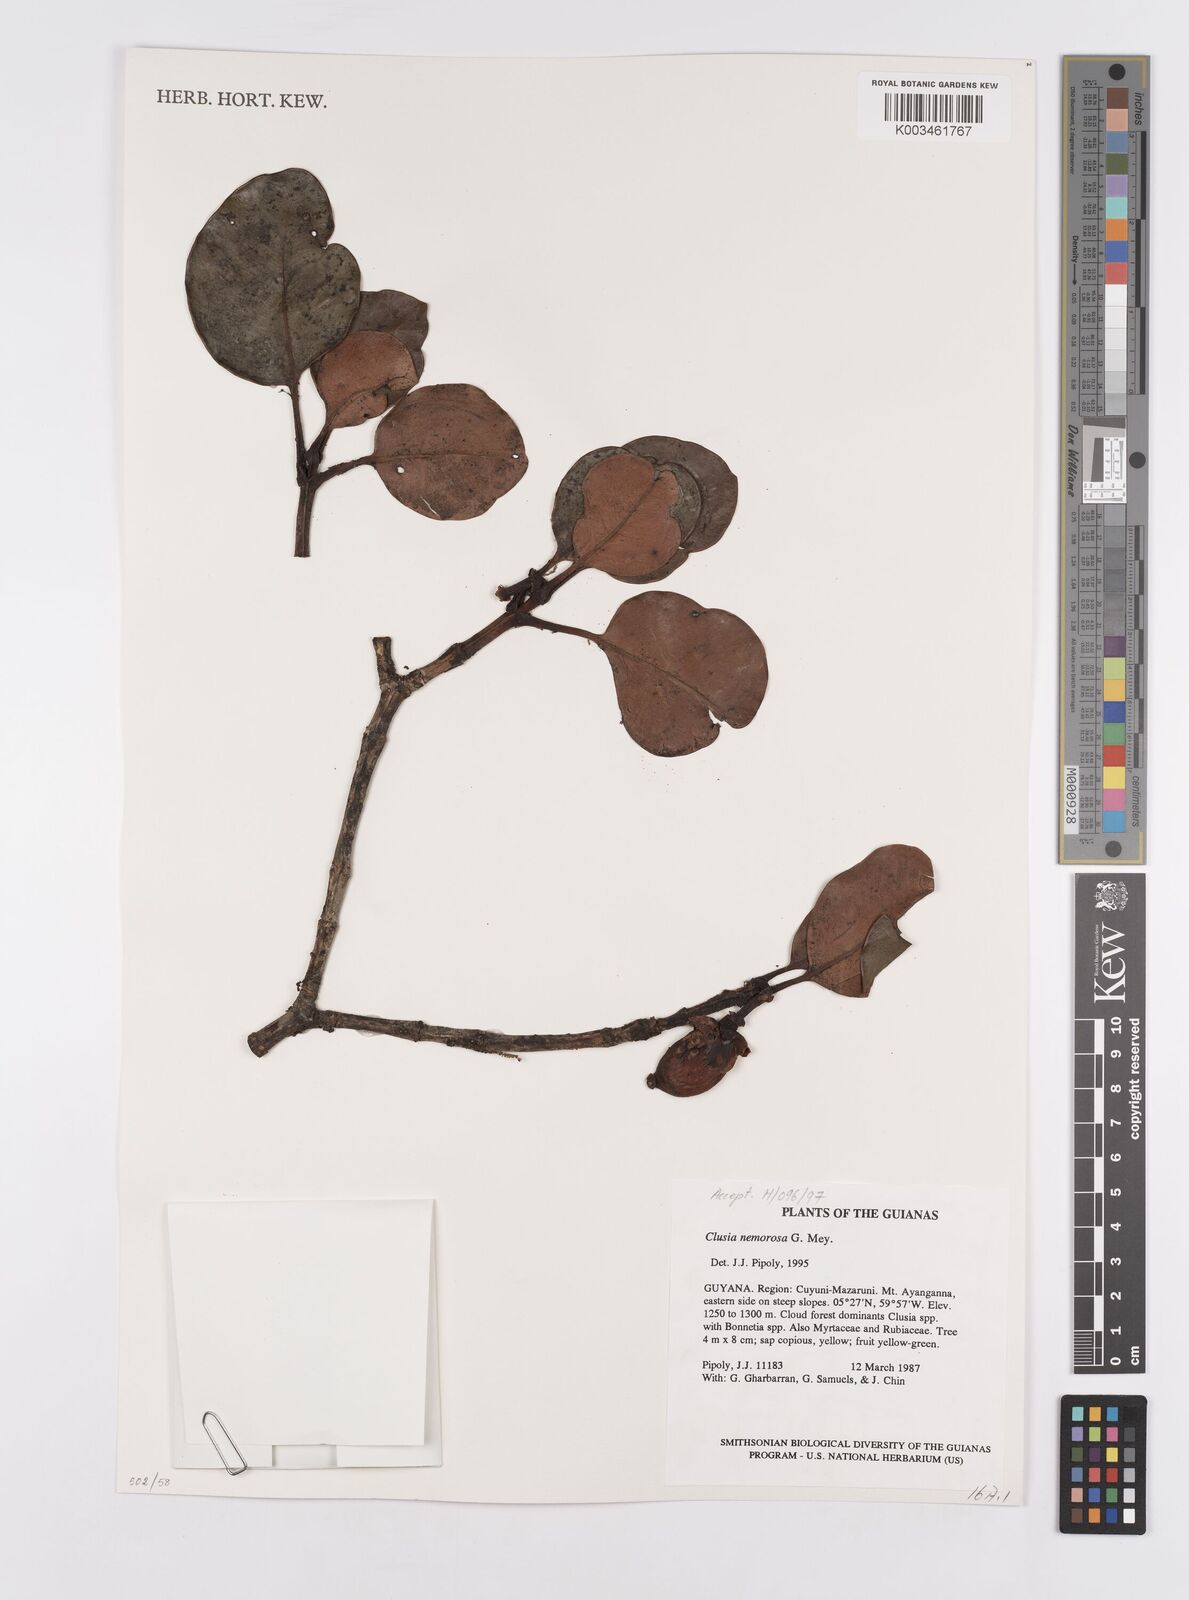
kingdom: Plantae
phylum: Tracheophyta
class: Magnoliopsida
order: Malpighiales
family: Clusiaceae
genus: Clusia
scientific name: Clusia nemorosa
